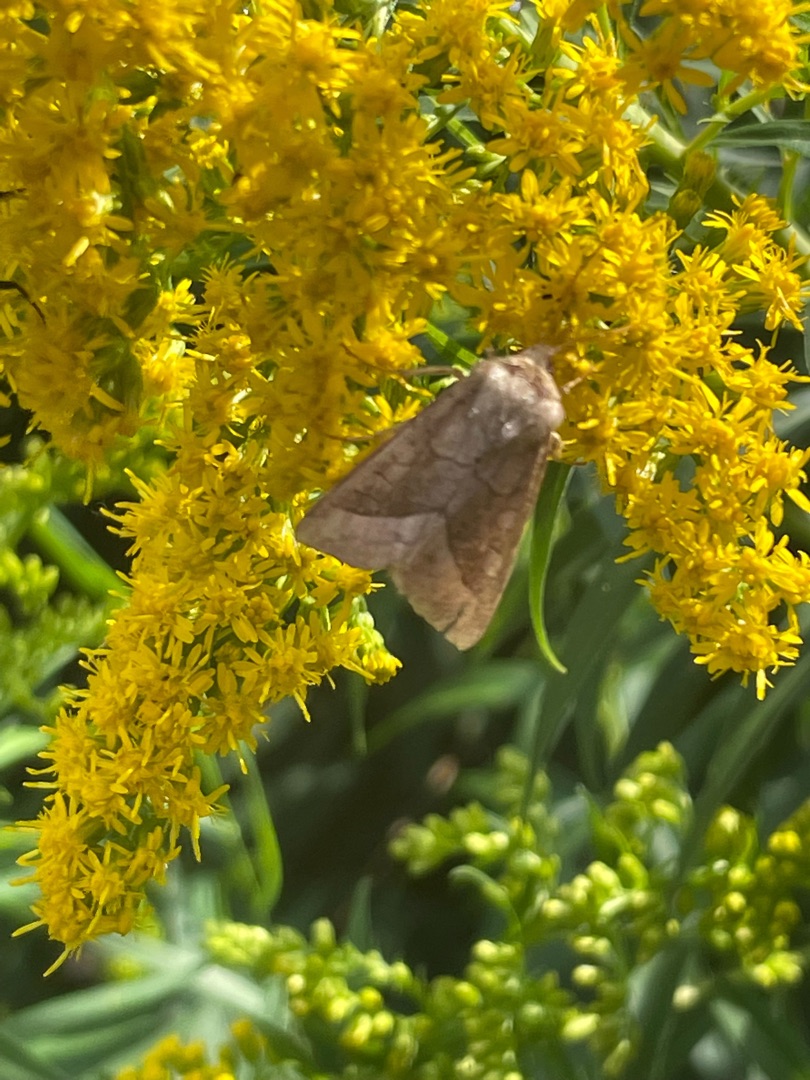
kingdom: Animalia
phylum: Arthropoda
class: Insecta
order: Lepidoptera
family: Noctuidae
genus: Hydraecia
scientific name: Hydraecia micacea
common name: Kartoffelborer
